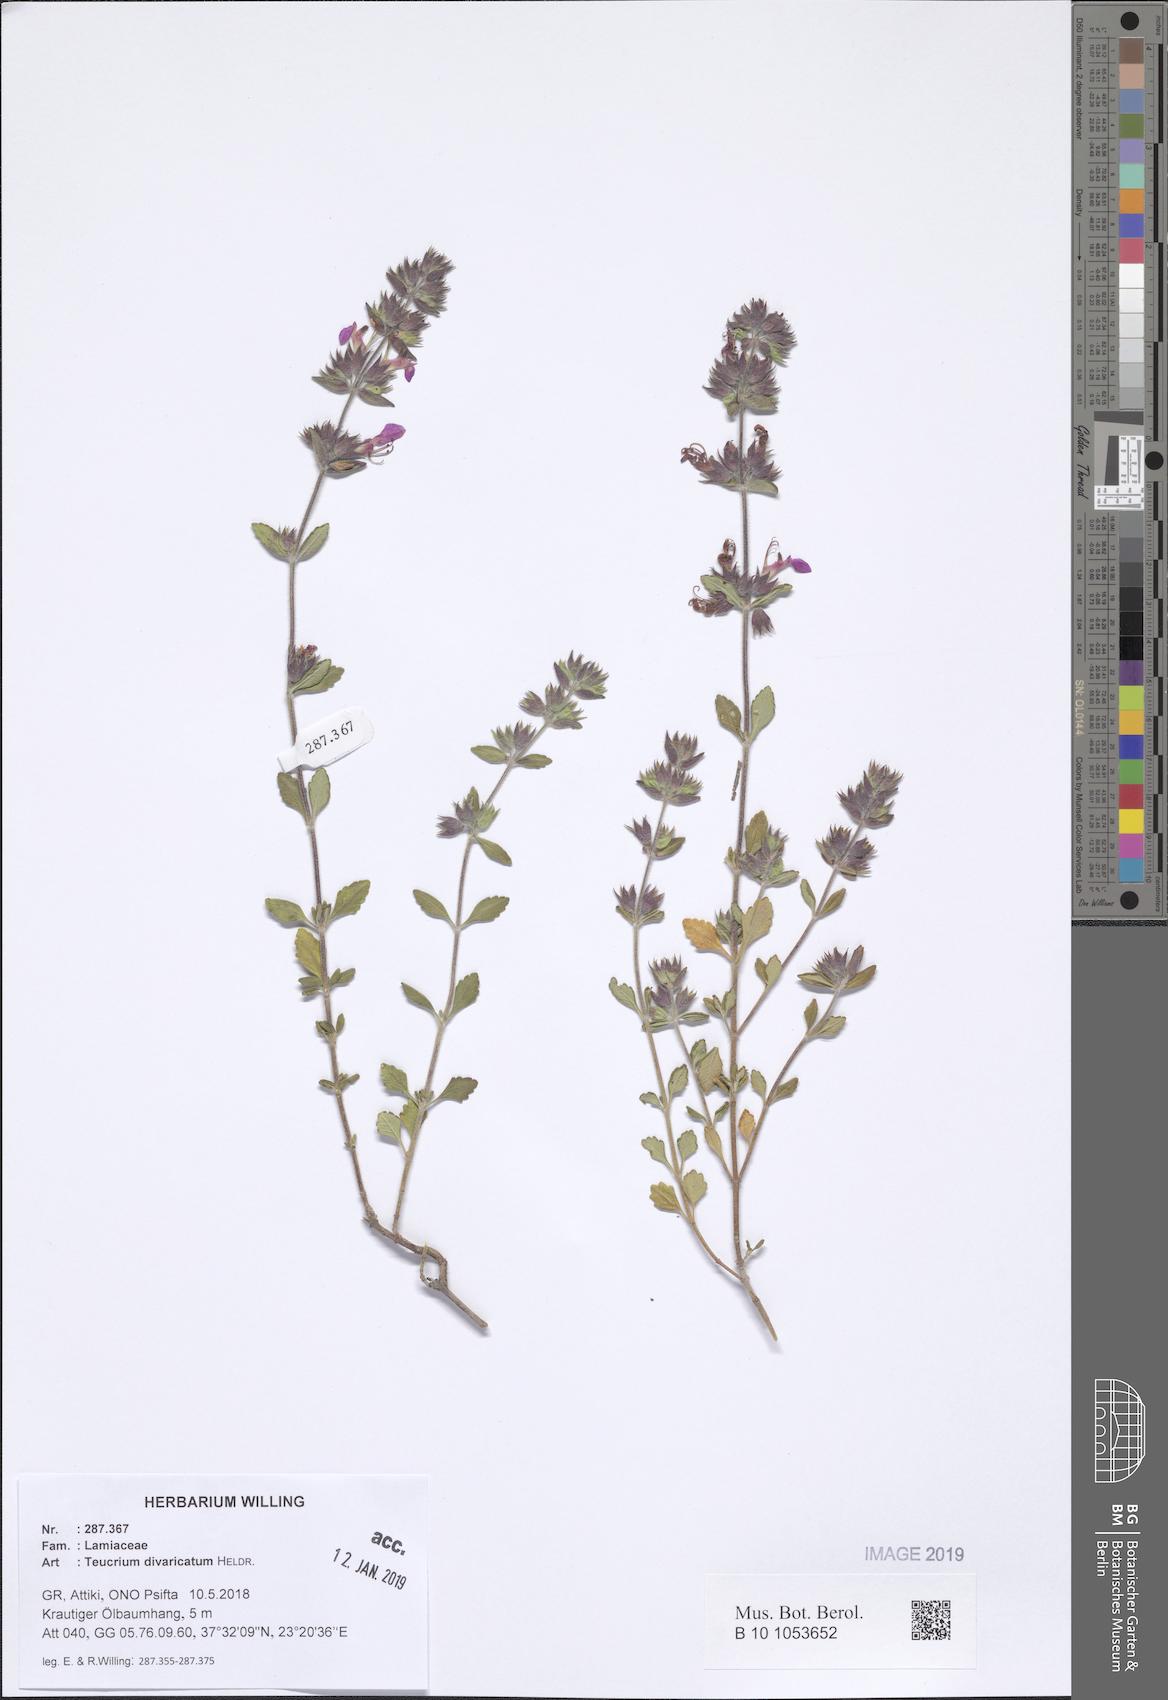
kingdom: Plantae
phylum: Tracheophyta
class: Magnoliopsida
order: Lamiales
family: Lamiaceae
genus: Teucrium
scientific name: Teucrium divaricatum
